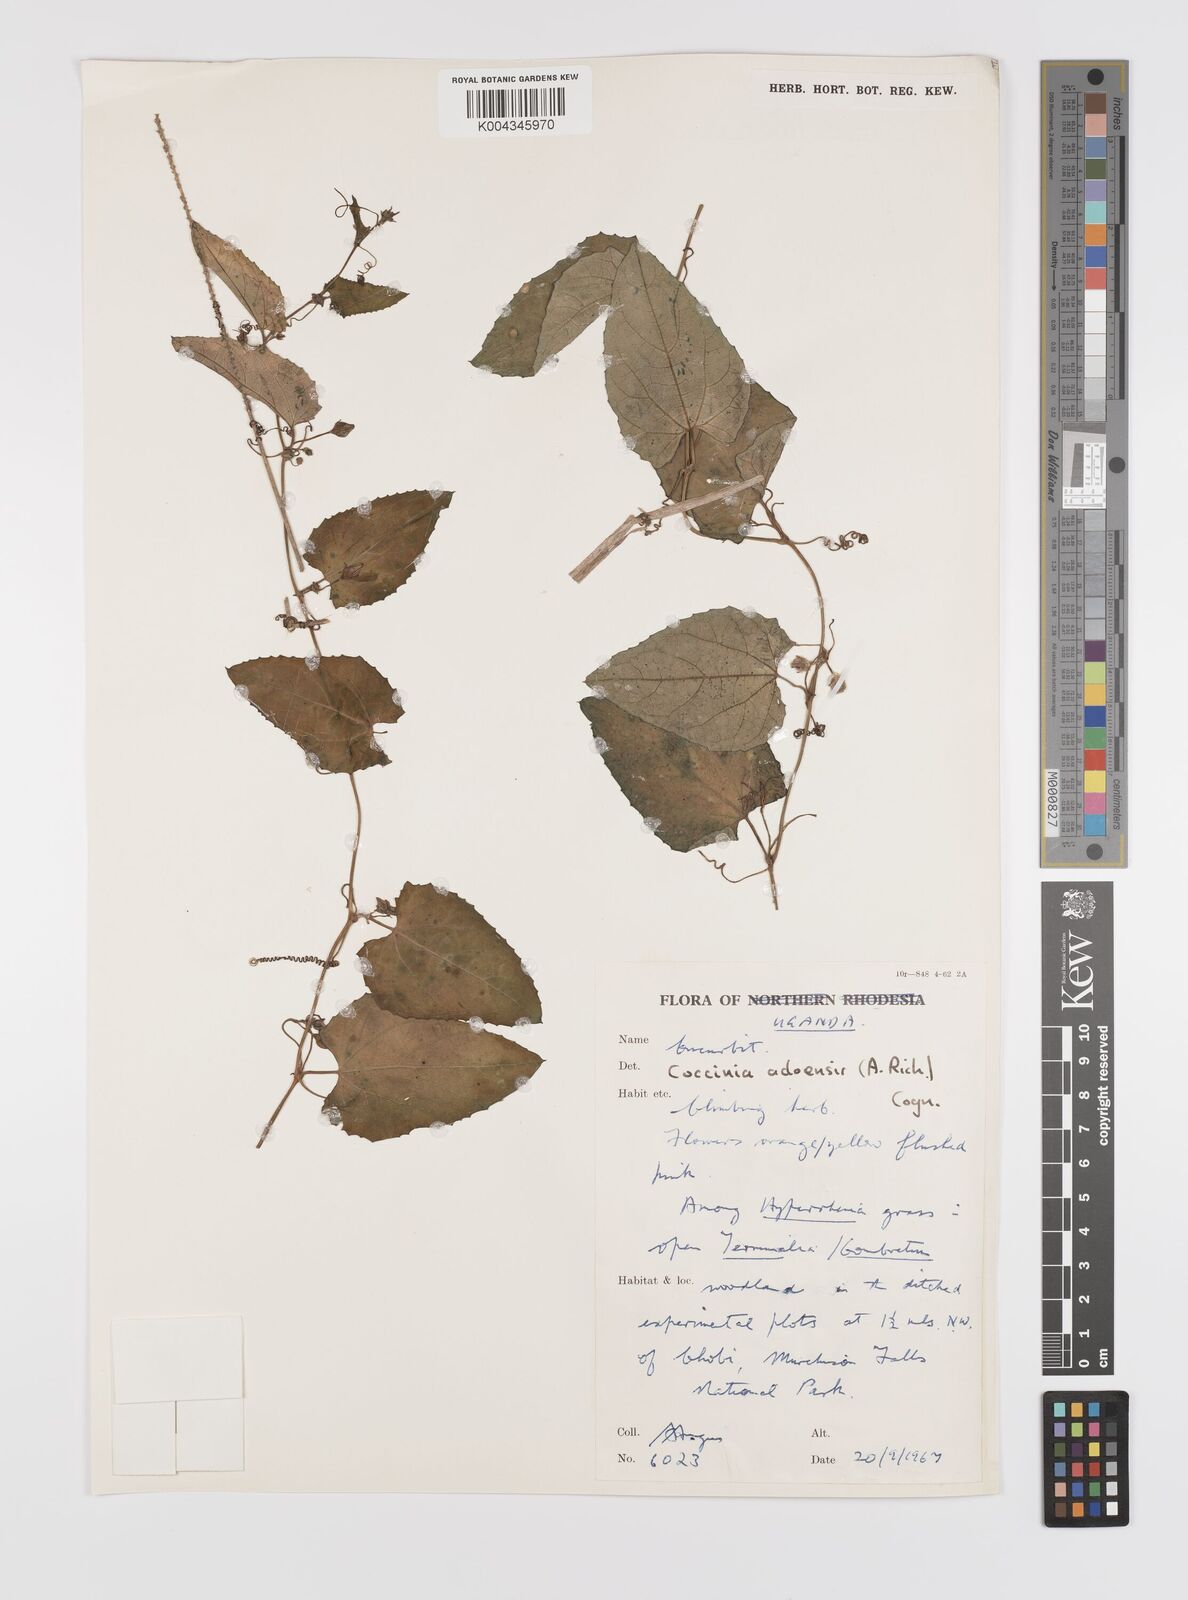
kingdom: Plantae
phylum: Tracheophyta
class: Magnoliopsida
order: Cucurbitales
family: Cucurbitaceae
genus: Coccinia
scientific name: Coccinia adoensis
